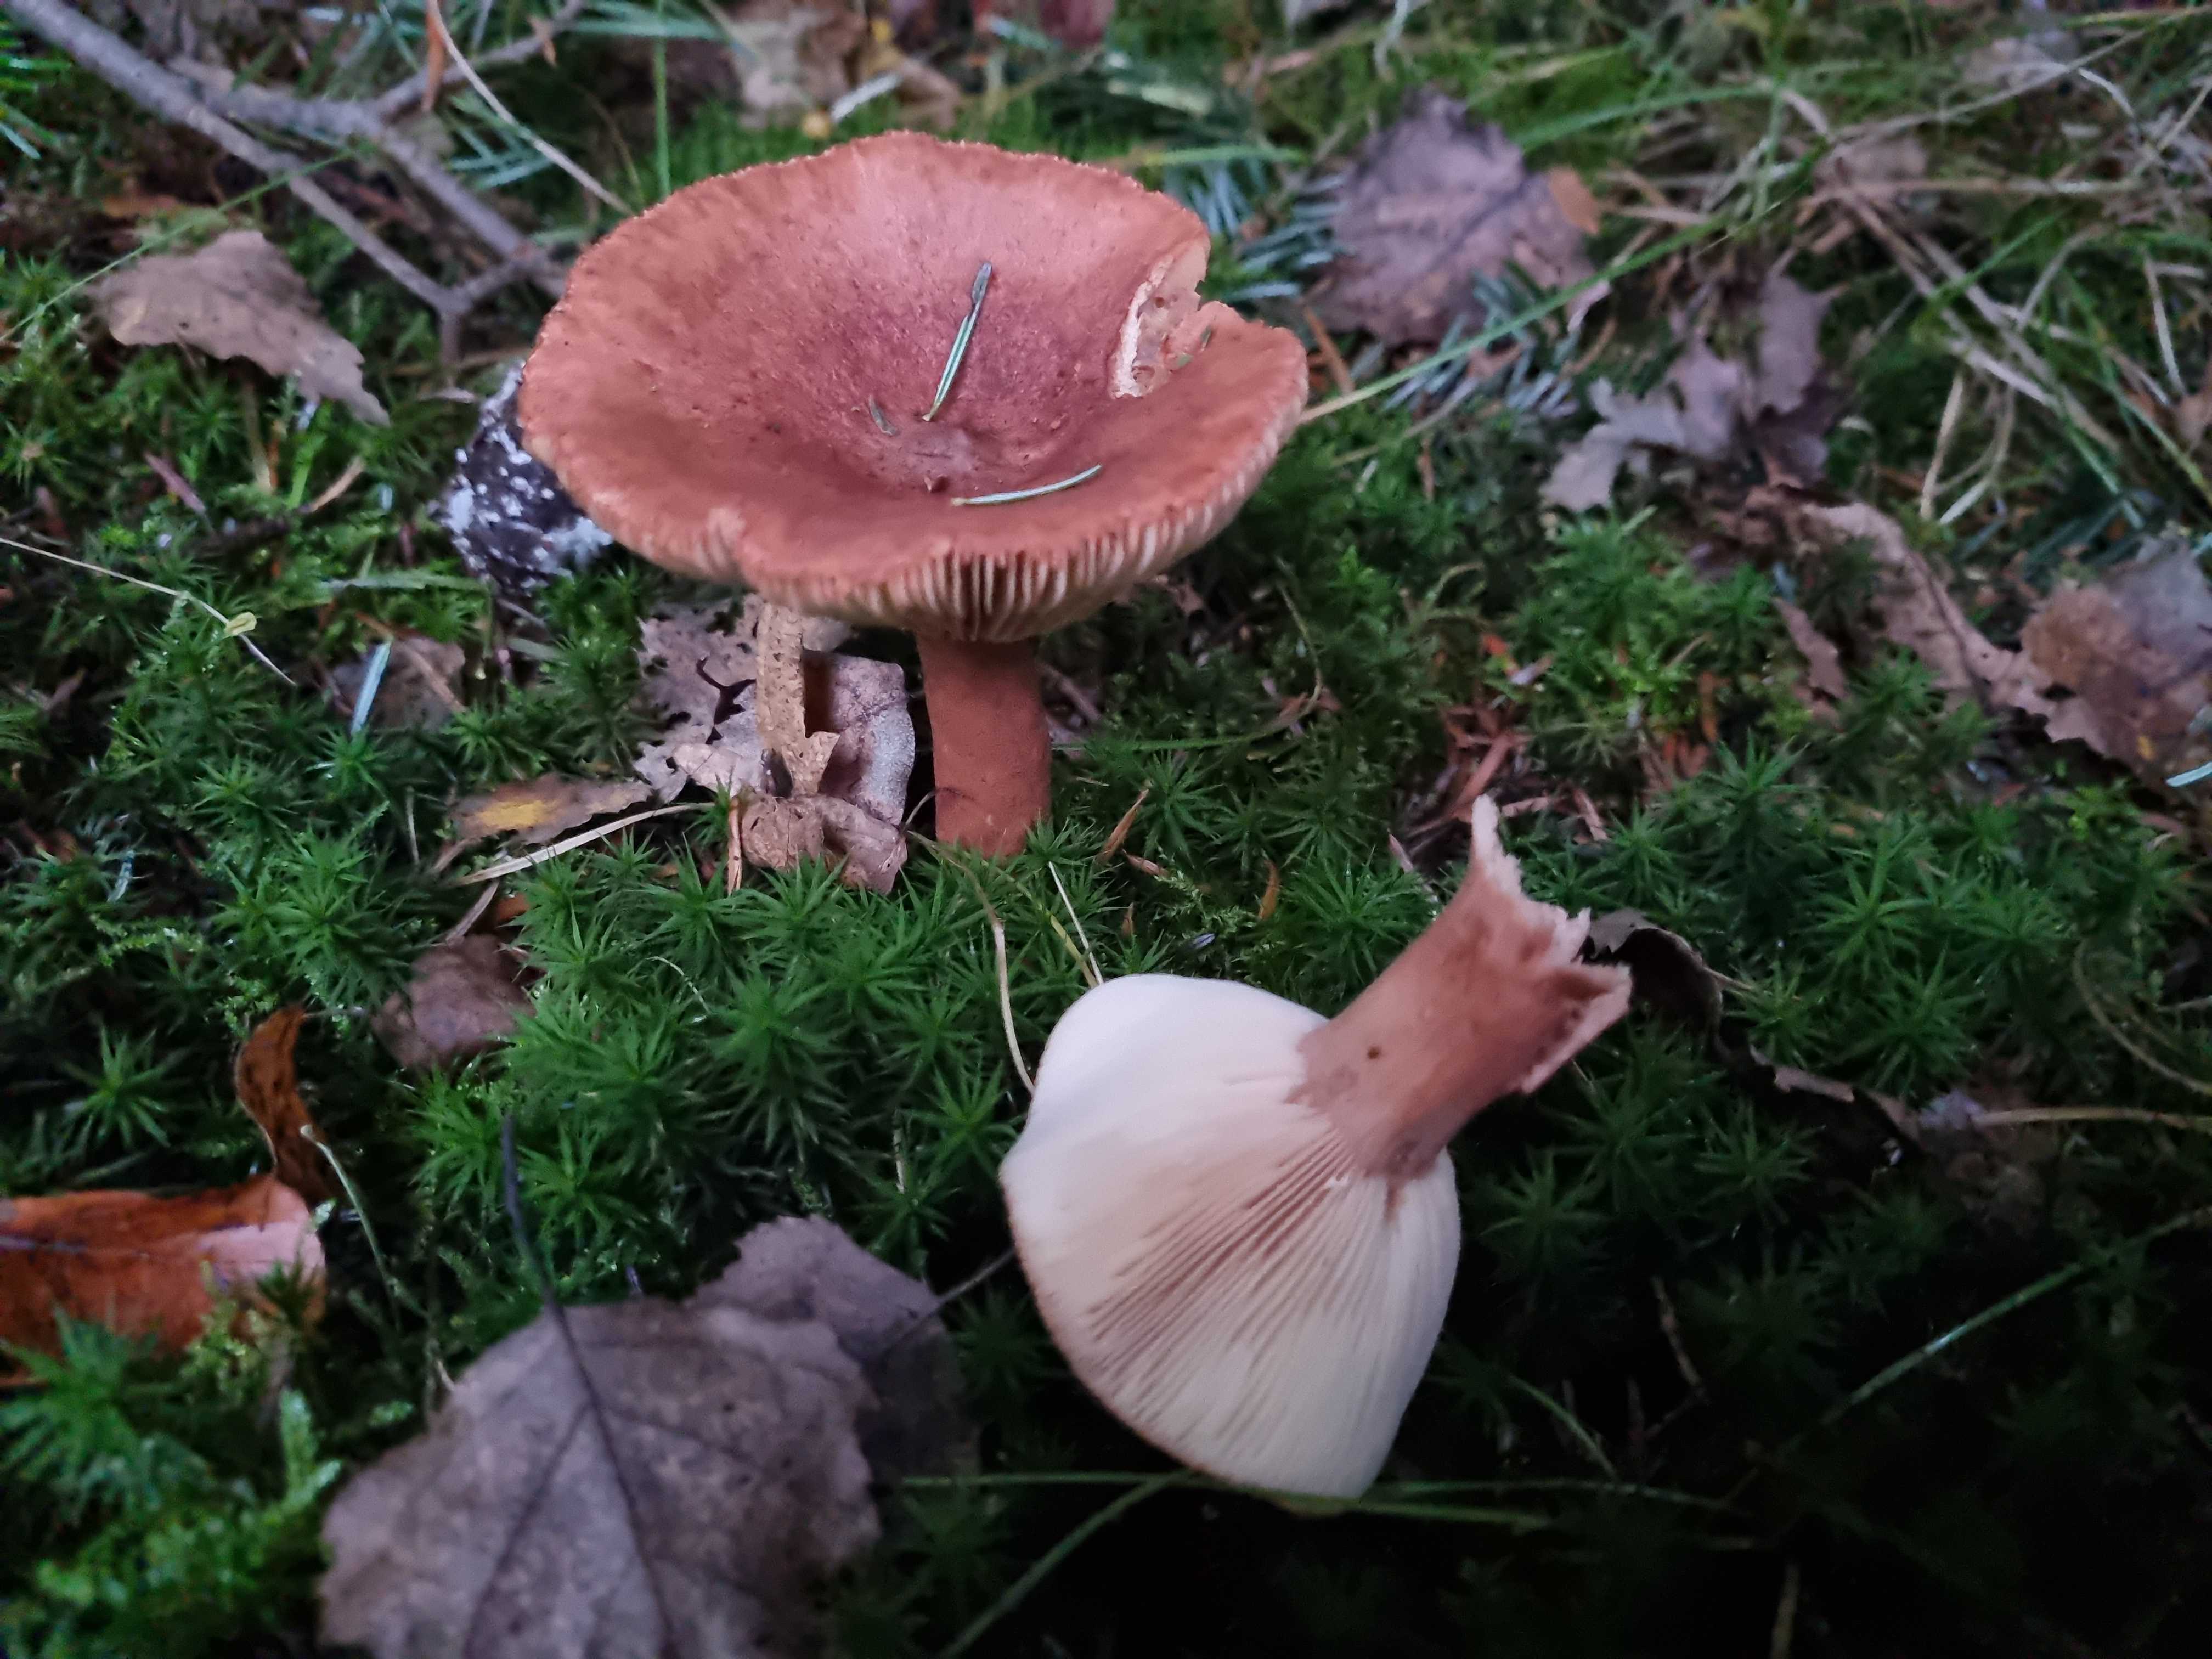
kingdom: Fungi
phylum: Basidiomycota
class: Agaricomycetes
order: Russulales
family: Russulaceae
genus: Lactarius
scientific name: Lactarius rufus
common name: rødbrun mælkehat
